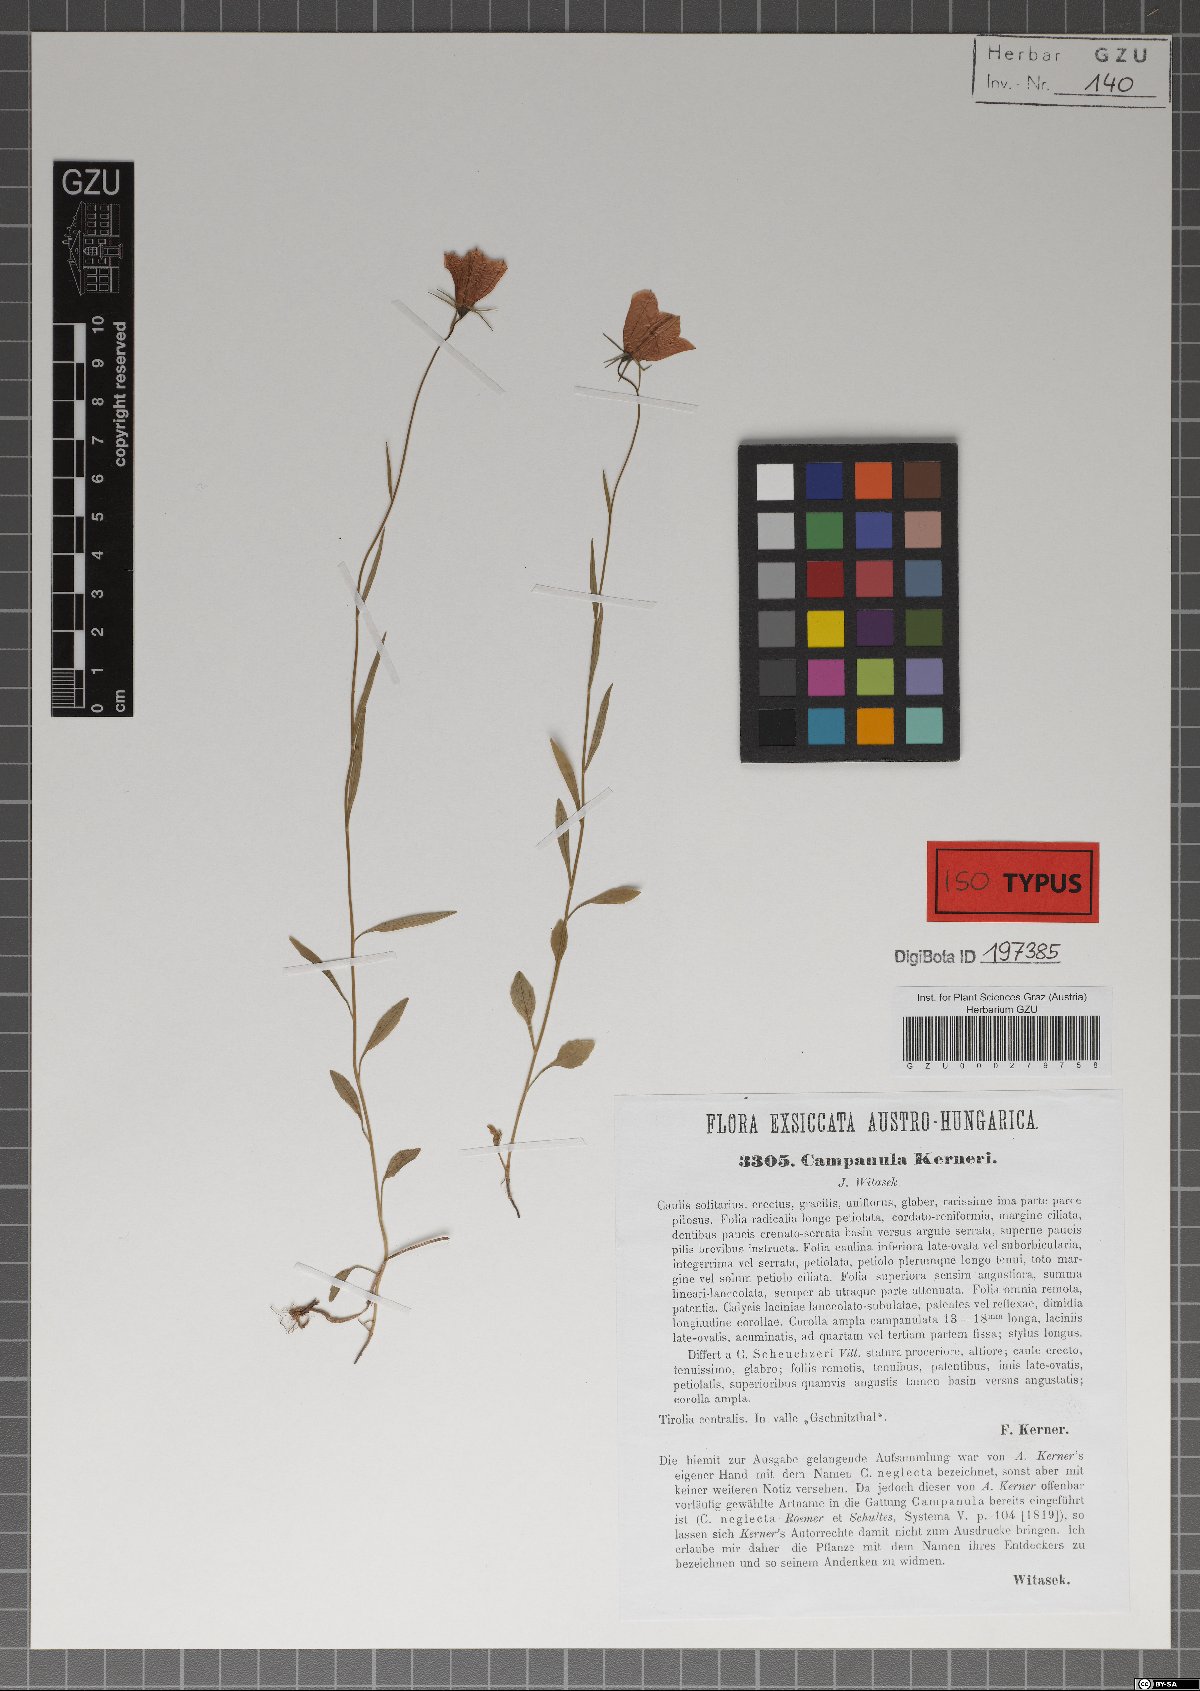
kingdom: Plantae
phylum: Tracheophyta
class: Magnoliopsida
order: Asterales
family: Campanulaceae
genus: Campanula
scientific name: Campanula scheuchzeri
